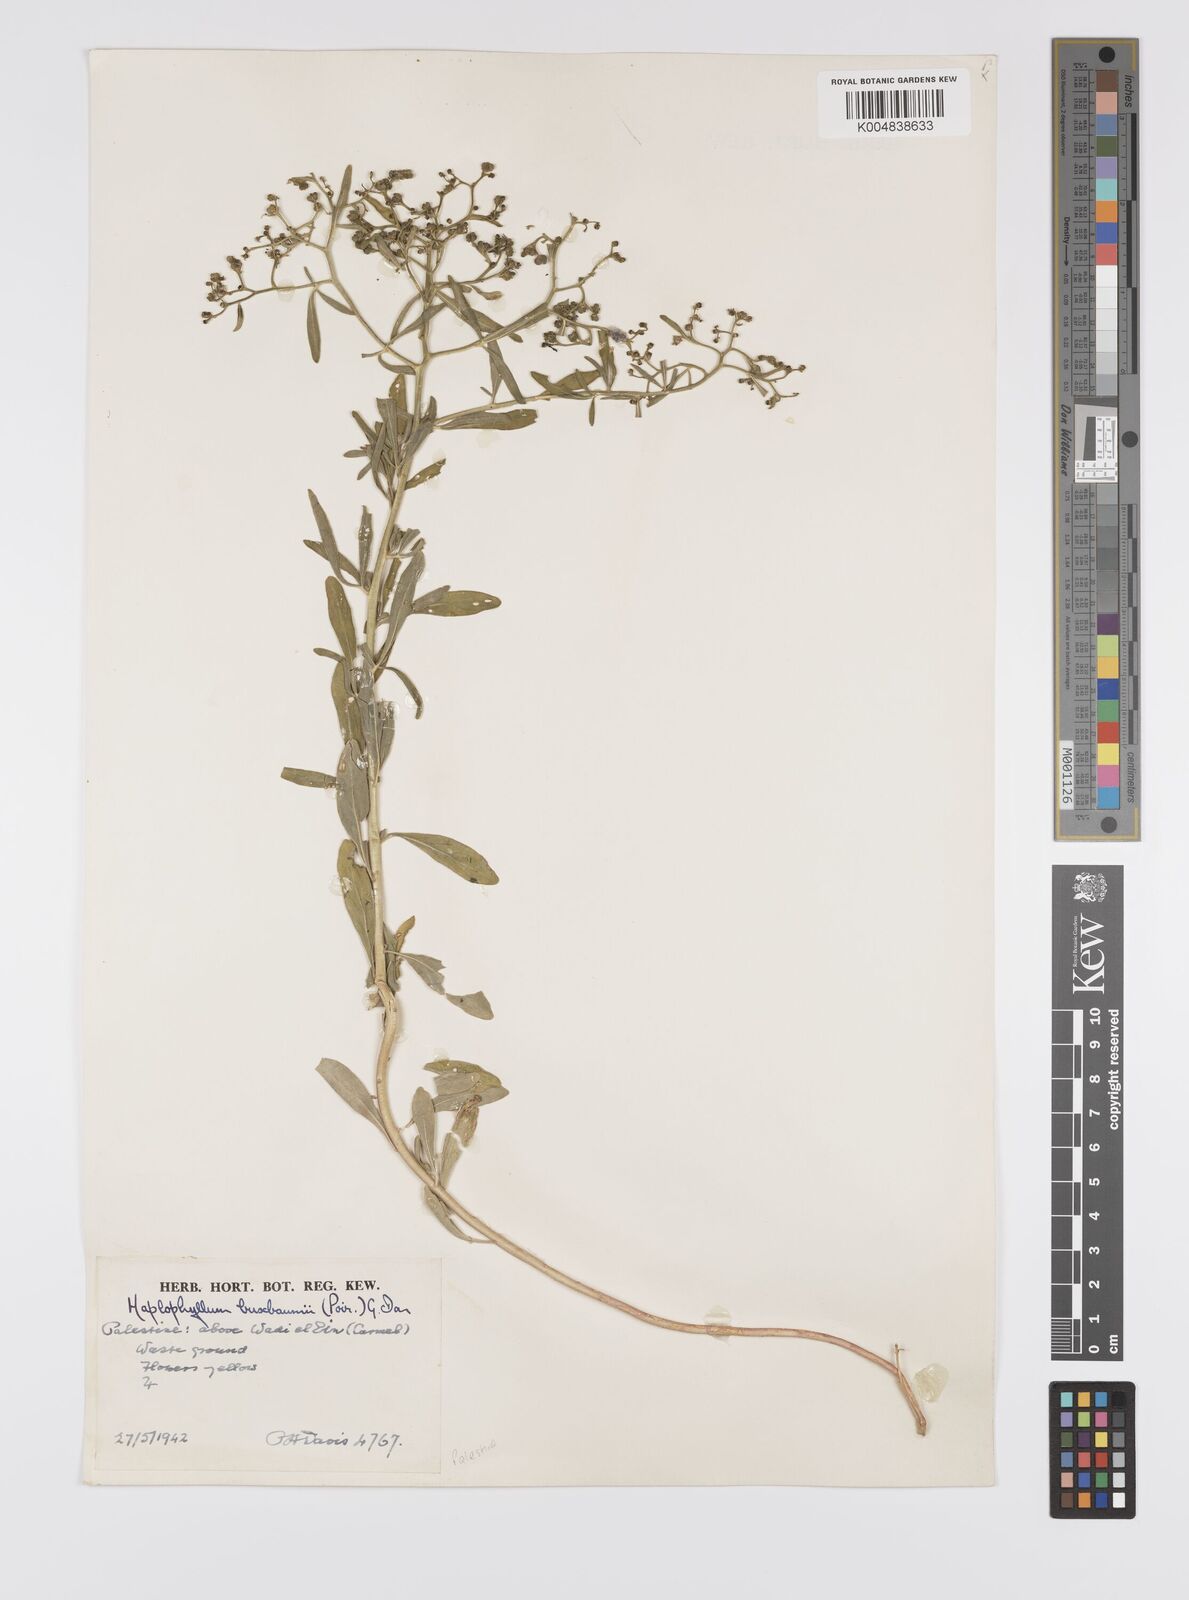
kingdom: Plantae
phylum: Tracheophyta
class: Magnoliopsida
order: Sapindales
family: Rutaceae
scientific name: Rutaceae
